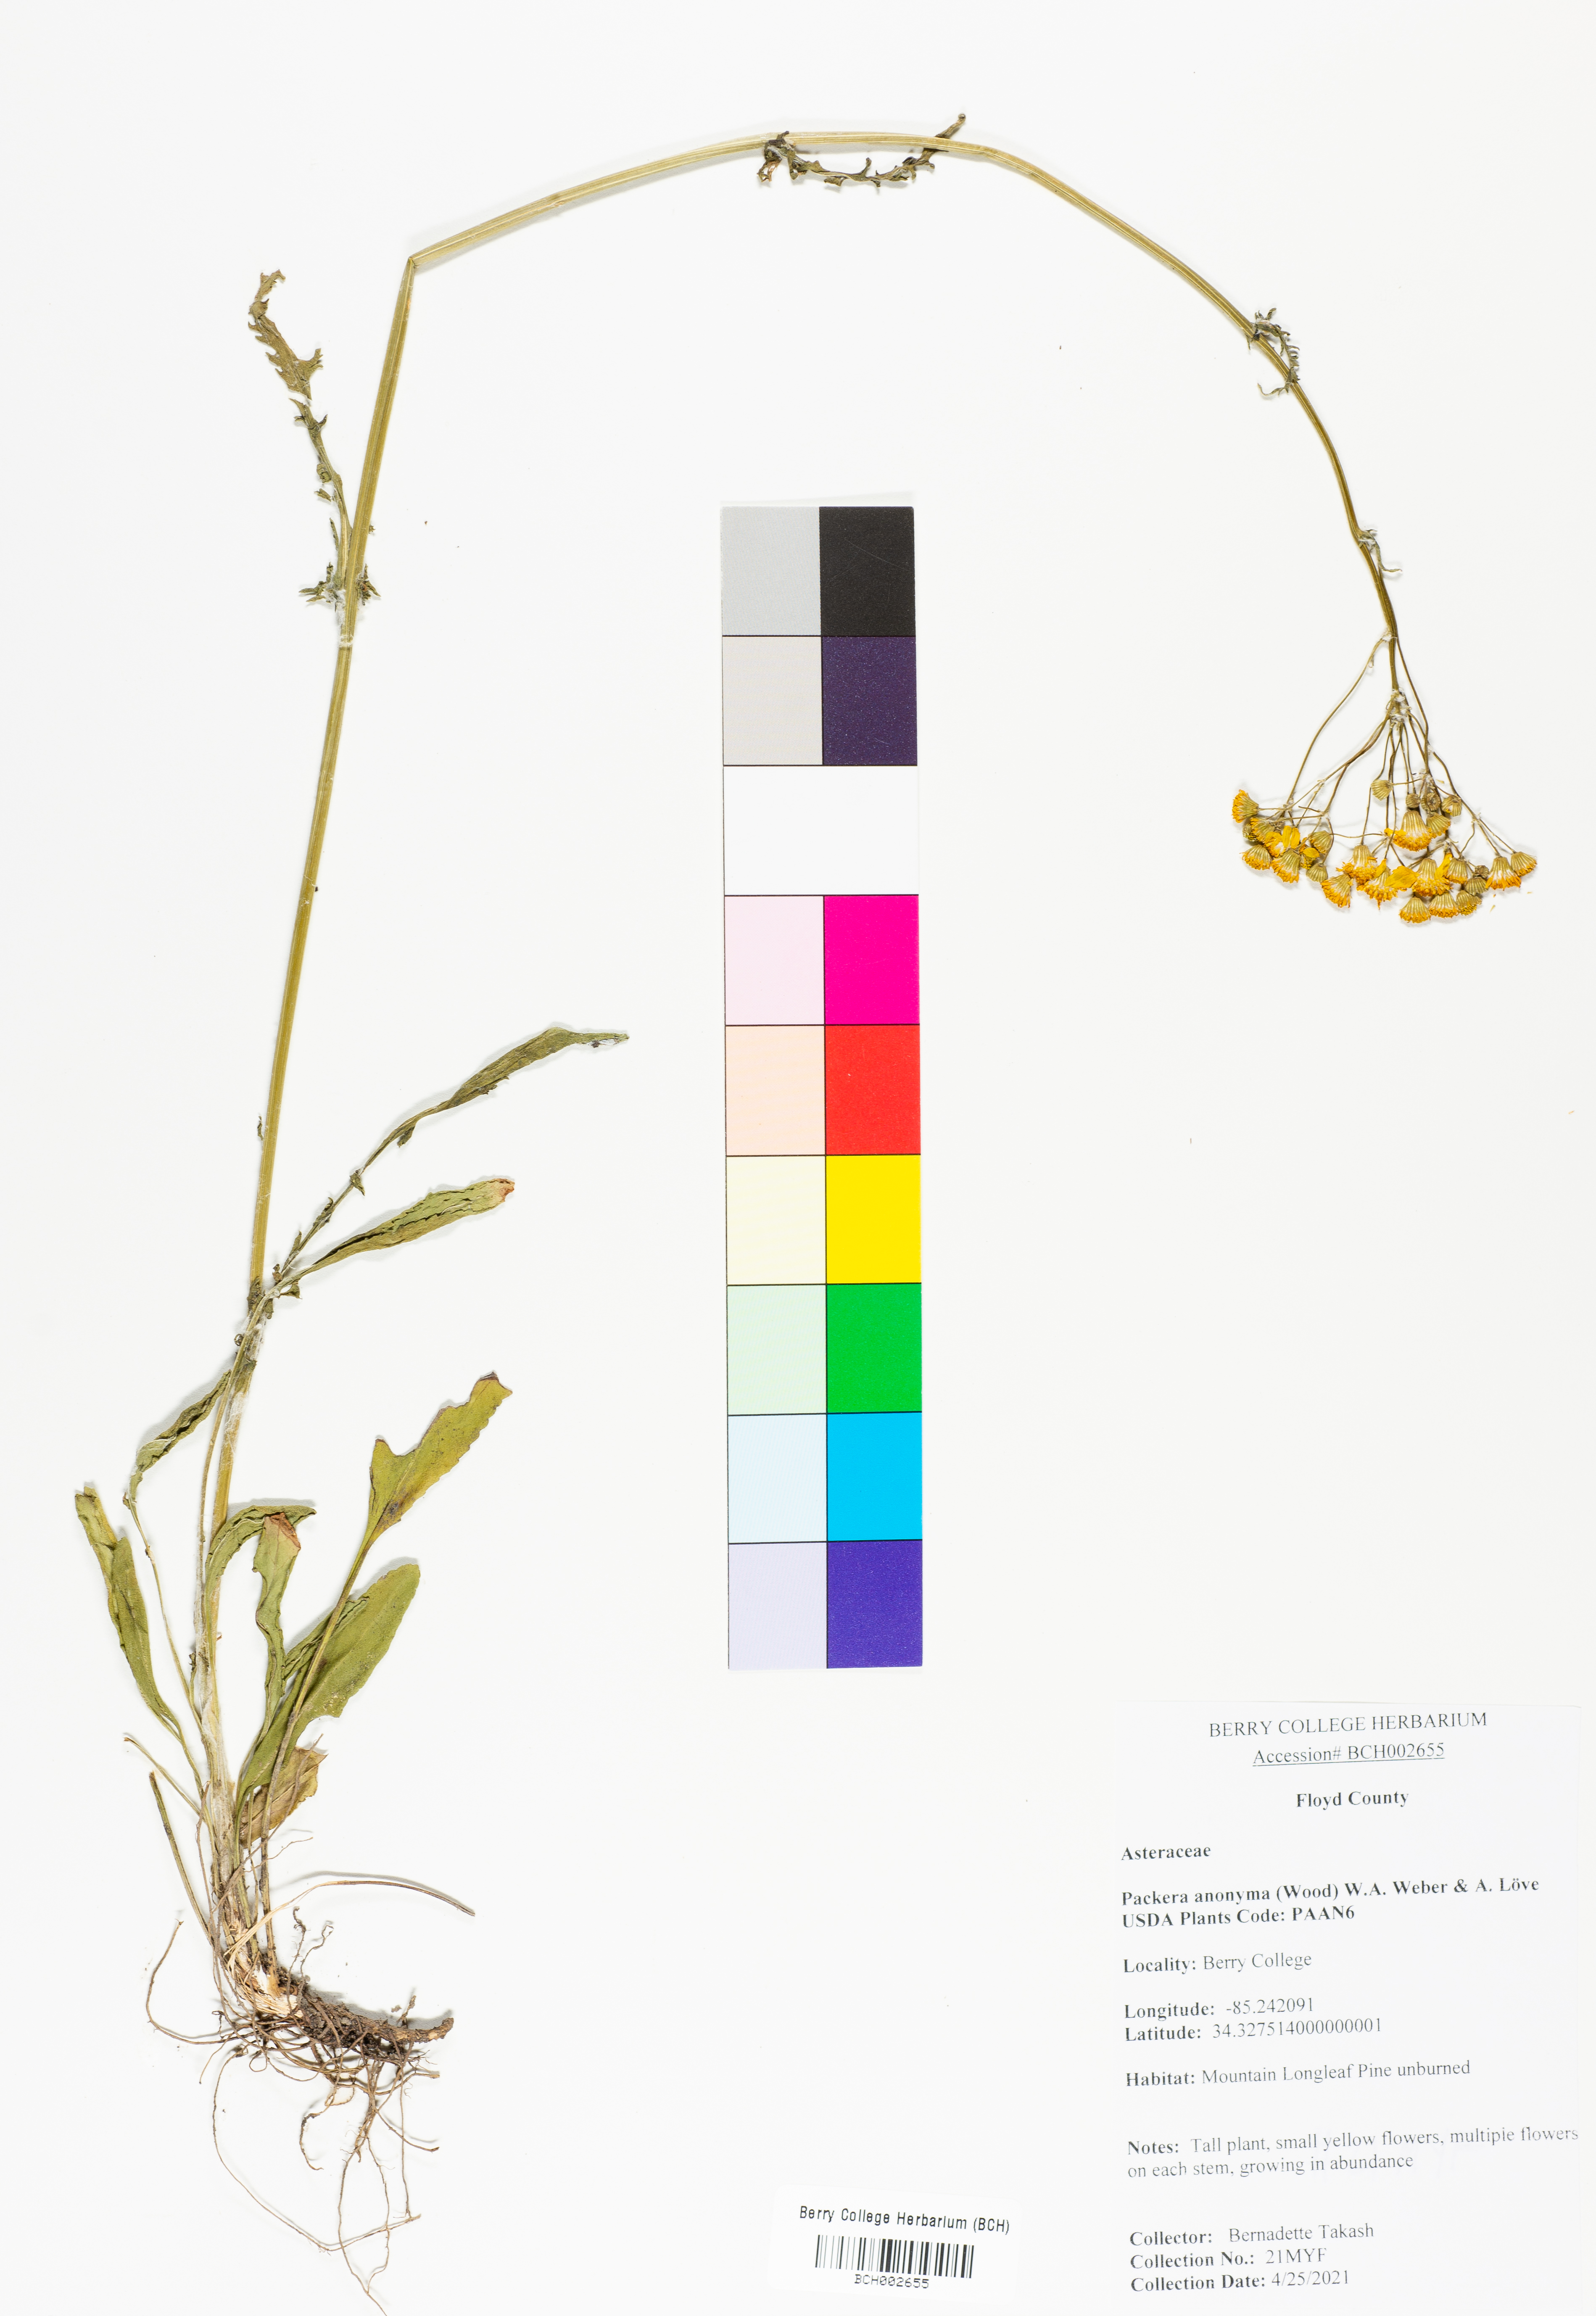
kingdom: Plantae
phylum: Tracheophyta
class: Magnoliopsida
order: Asterales
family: Asteraceae
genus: Packera
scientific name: Packera anonyma
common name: Small ragwort
